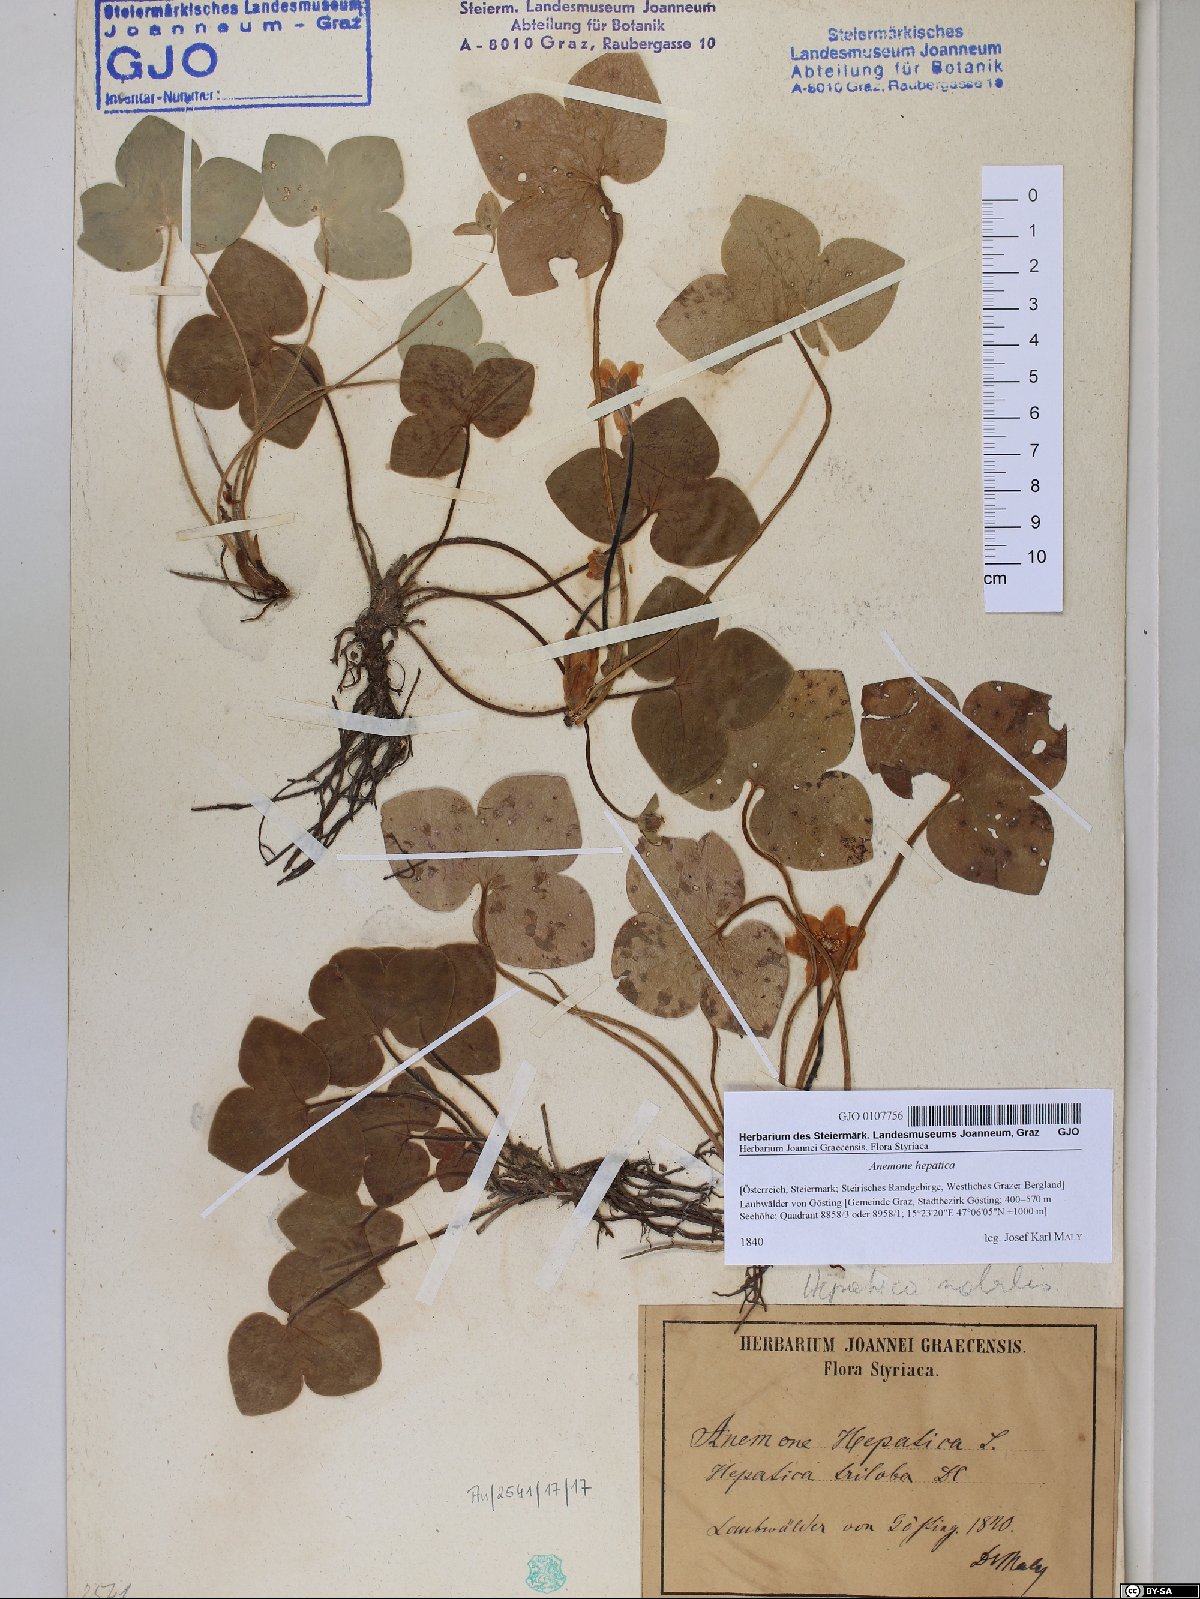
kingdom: Plantae
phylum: Tracheophyta
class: Magnoliopsida
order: Ranunculales
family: Ranunculaceae
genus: Hepatica
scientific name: Hepatica nobilis
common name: Liverleaf
